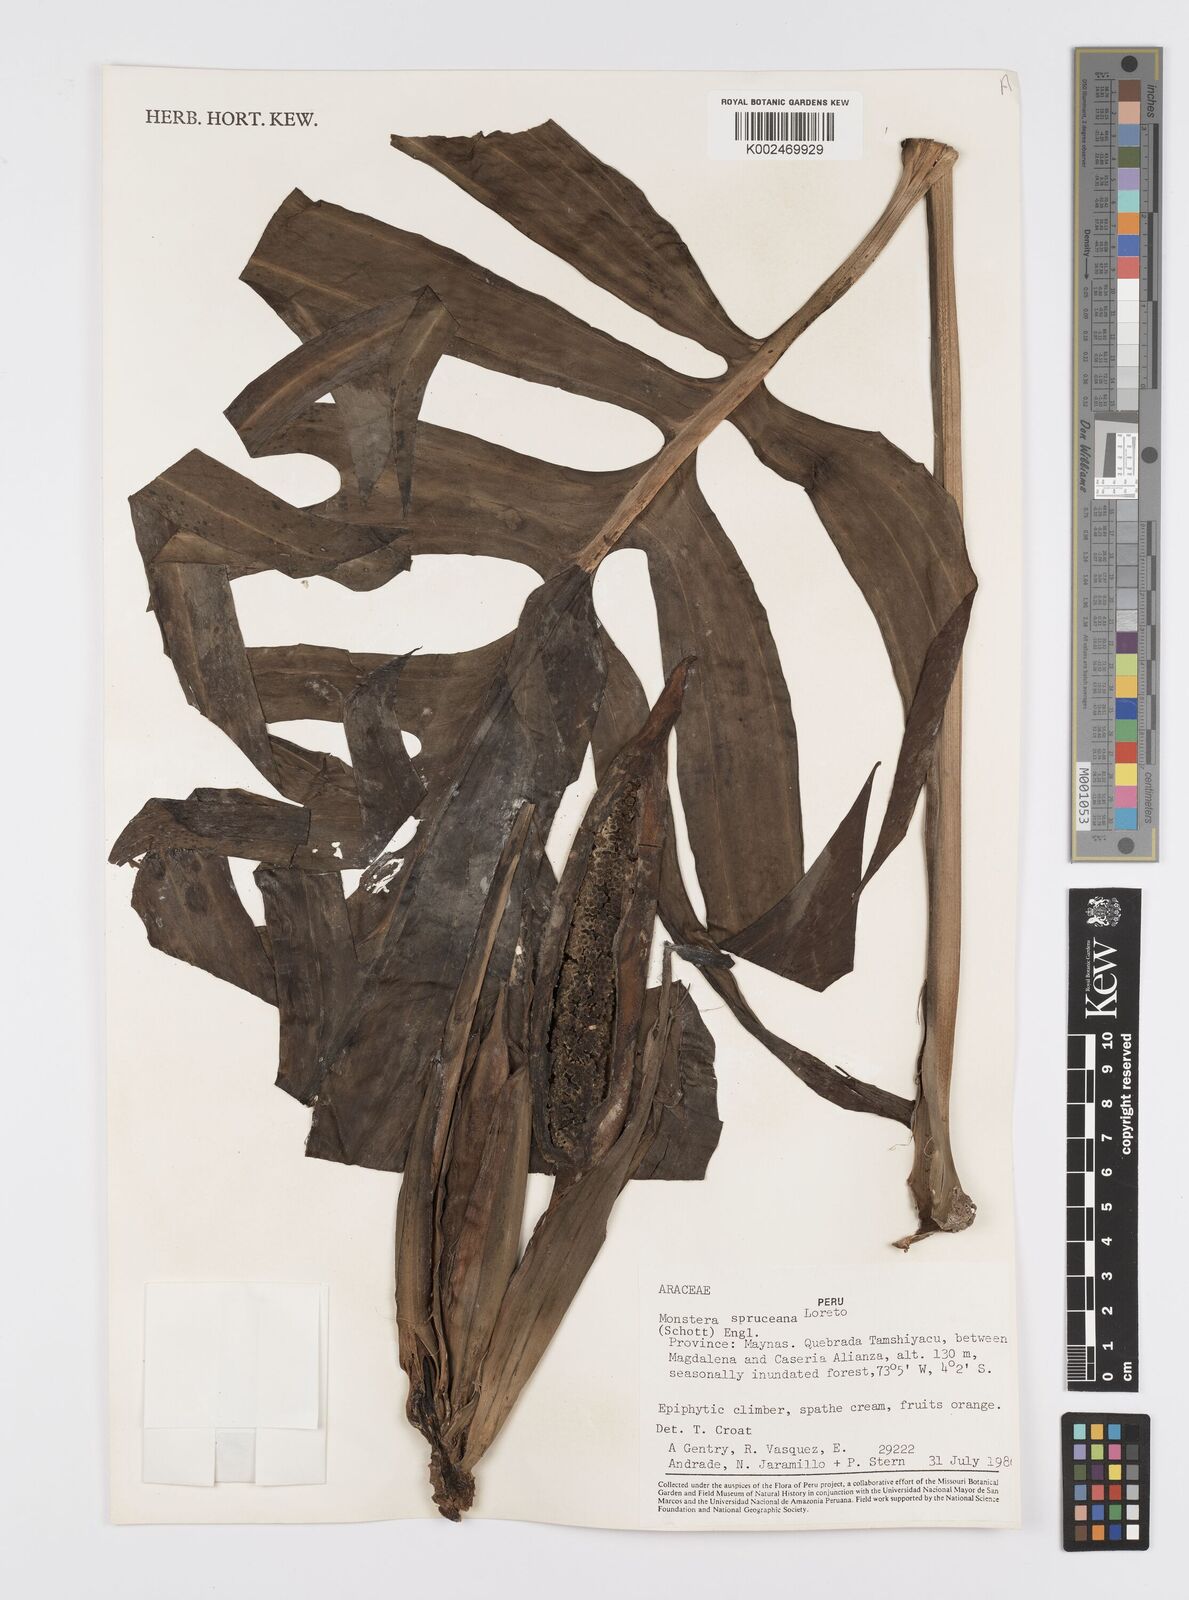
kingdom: Plantae
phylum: Tracheophyta
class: Liliopsida
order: Alismatales
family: Araceae
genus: Monstera
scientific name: Monstera spruceana
